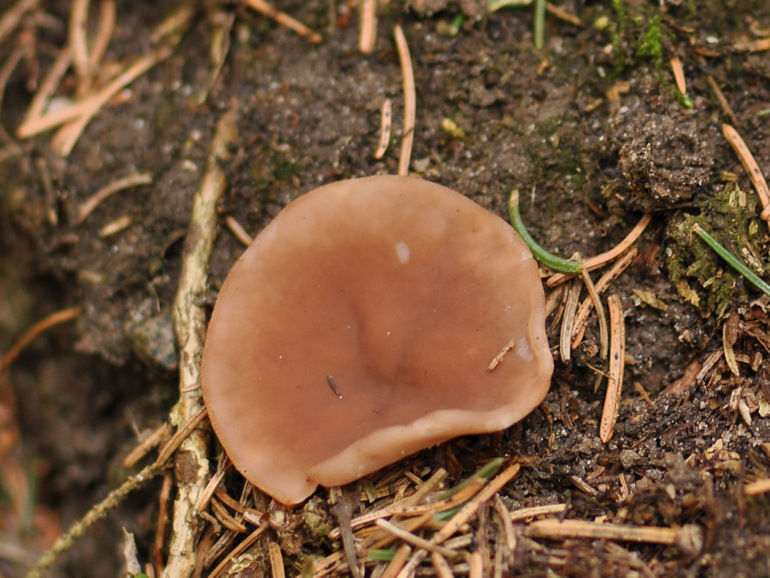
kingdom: Fungi
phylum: Ascomycota
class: Pezizomycetes
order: Pezizales
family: Discinaceae
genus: Discina
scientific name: Discina ancilis
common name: udbredt stenmorkel
